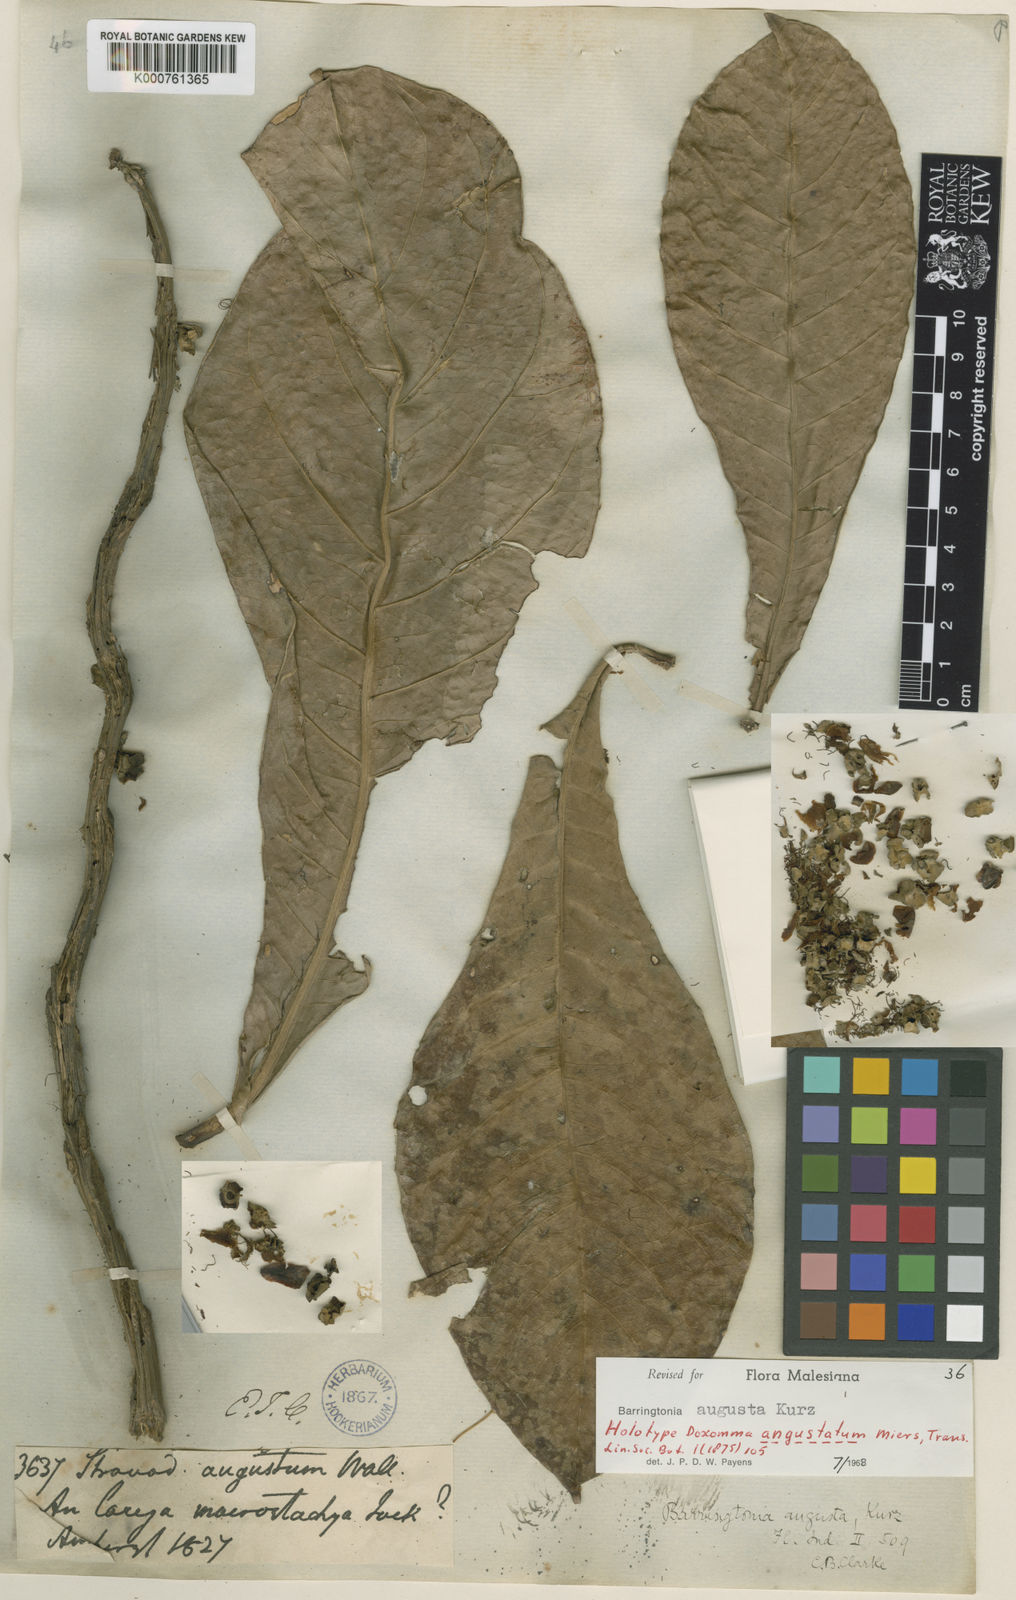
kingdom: Plantae
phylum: Tracheophyta
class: Magnoliopsida
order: Ericales
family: Lecythidaceae
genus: Barringtonia
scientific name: Barringtonia augusta
